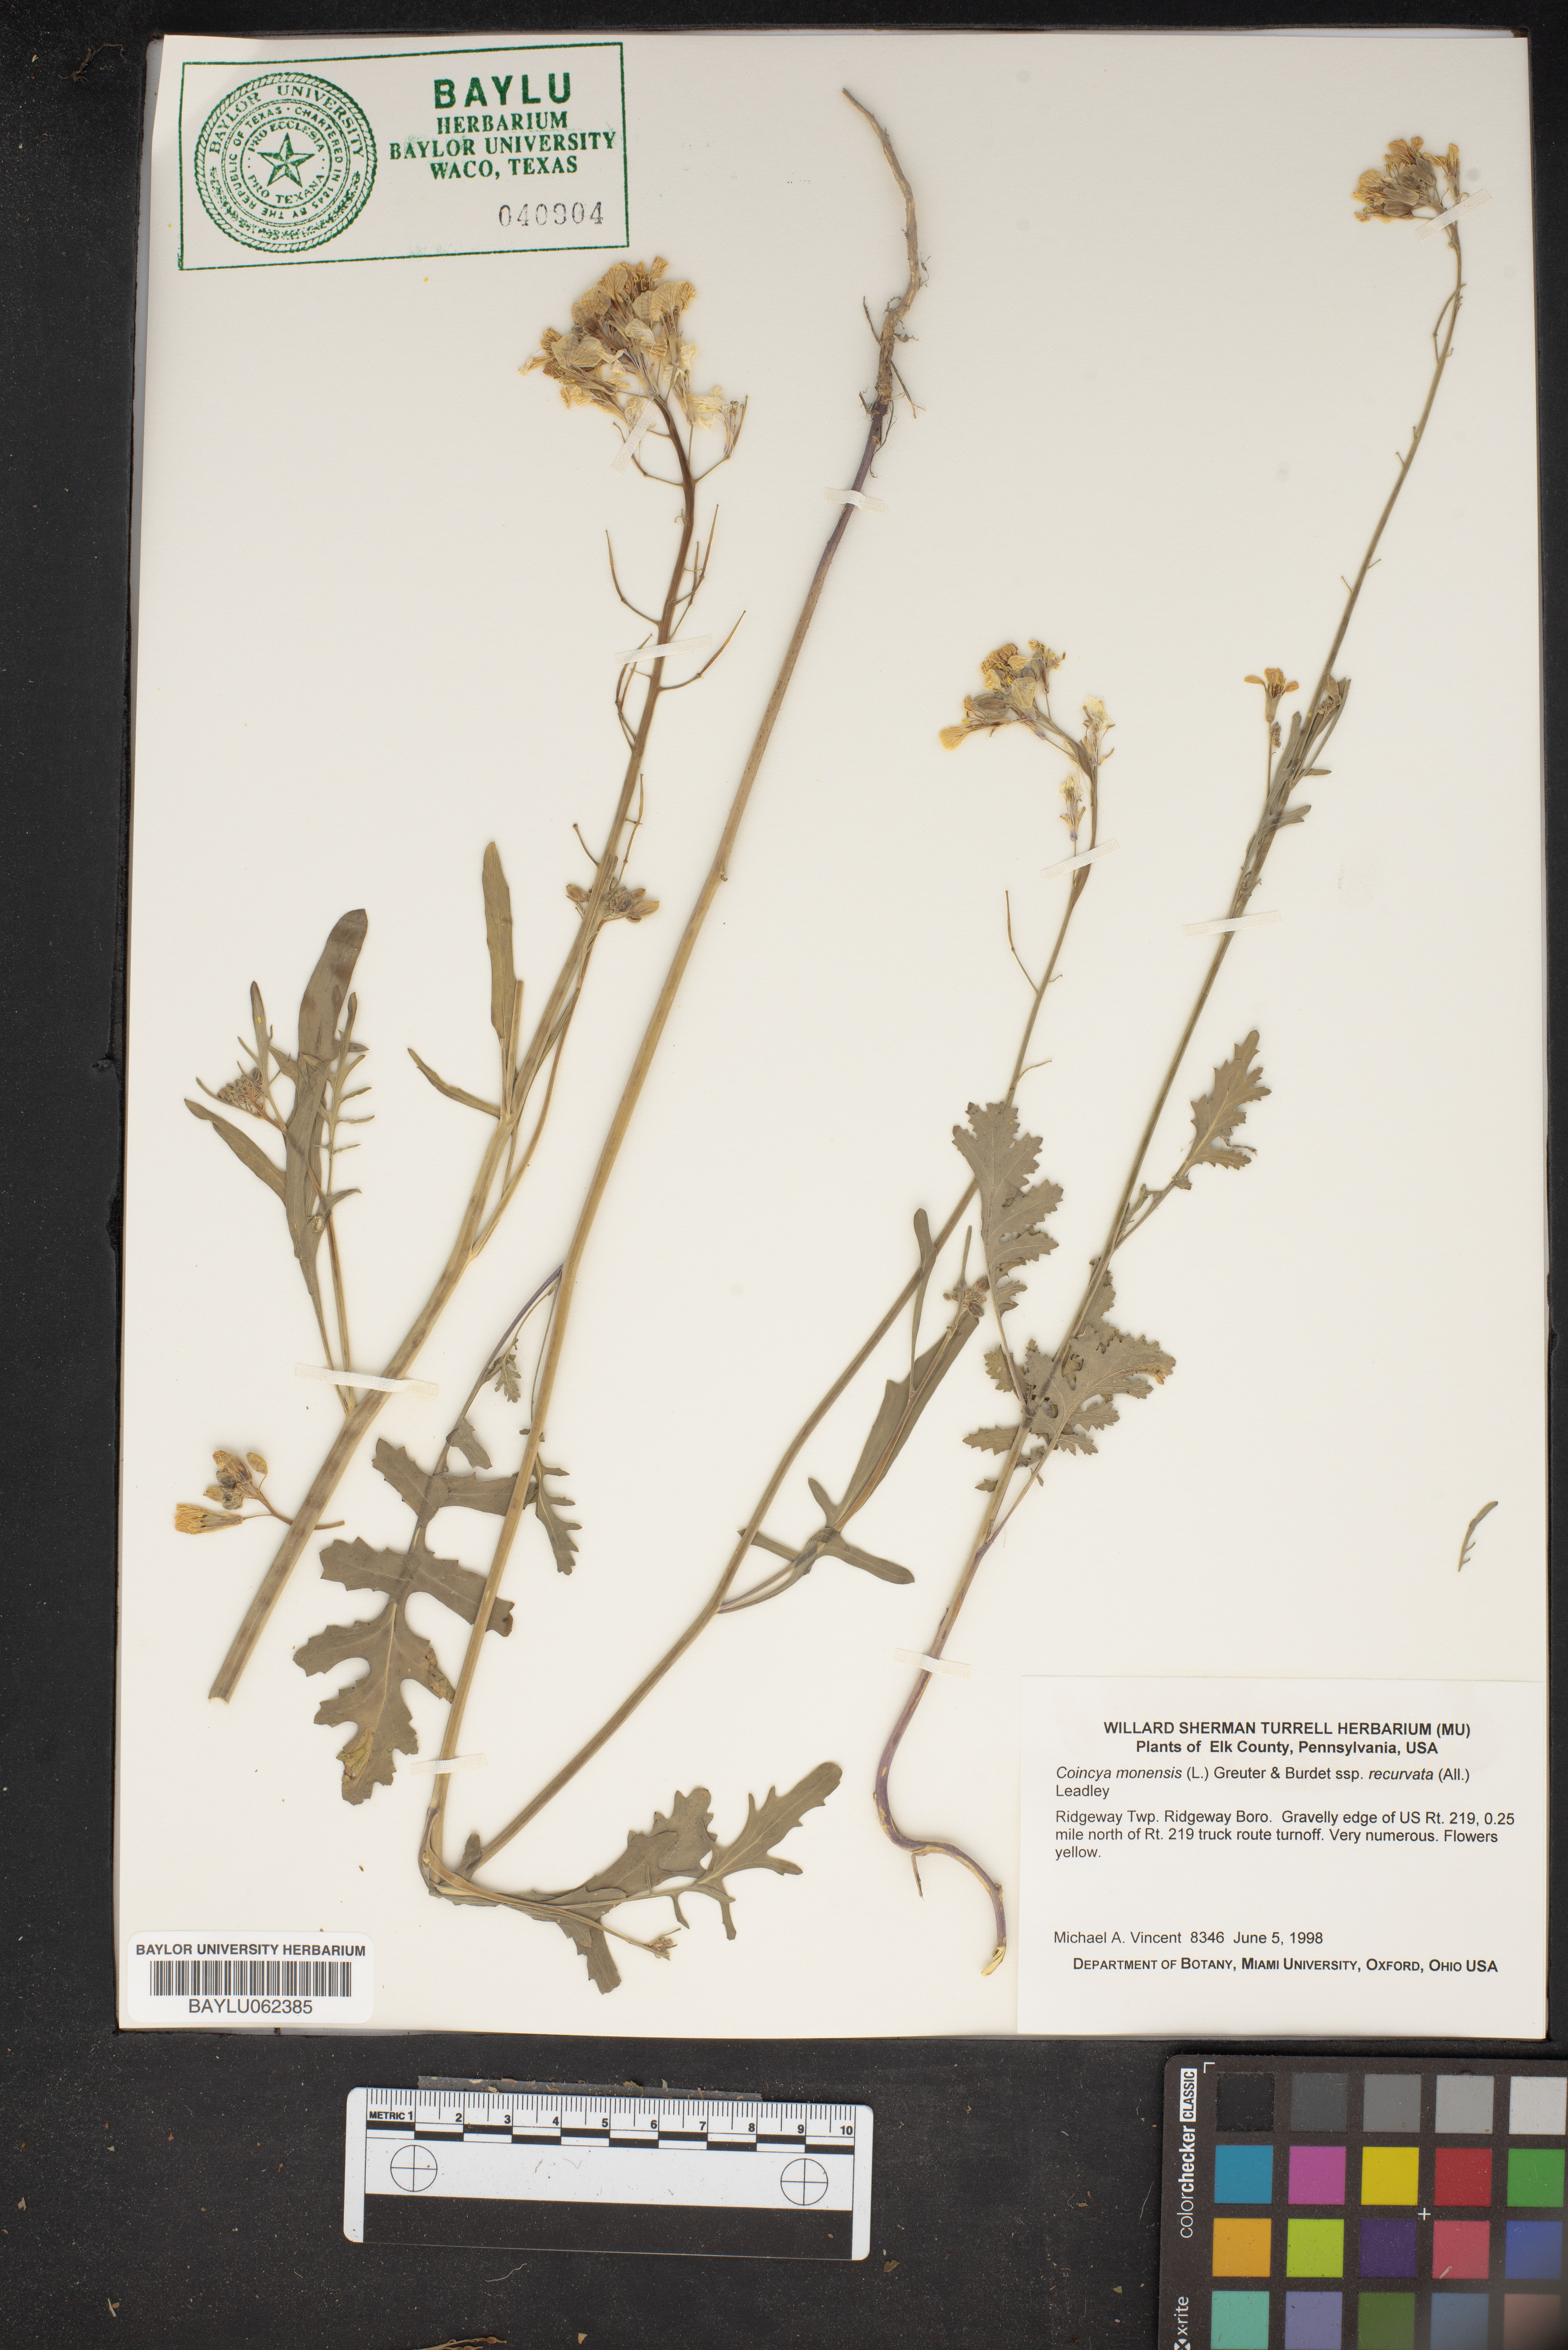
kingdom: Plantae
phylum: Tracheophyta
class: Magnoliopsida
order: Brassicales
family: Brassicaceae
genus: Coincya
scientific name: Coincya monensis
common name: Star-mustard
